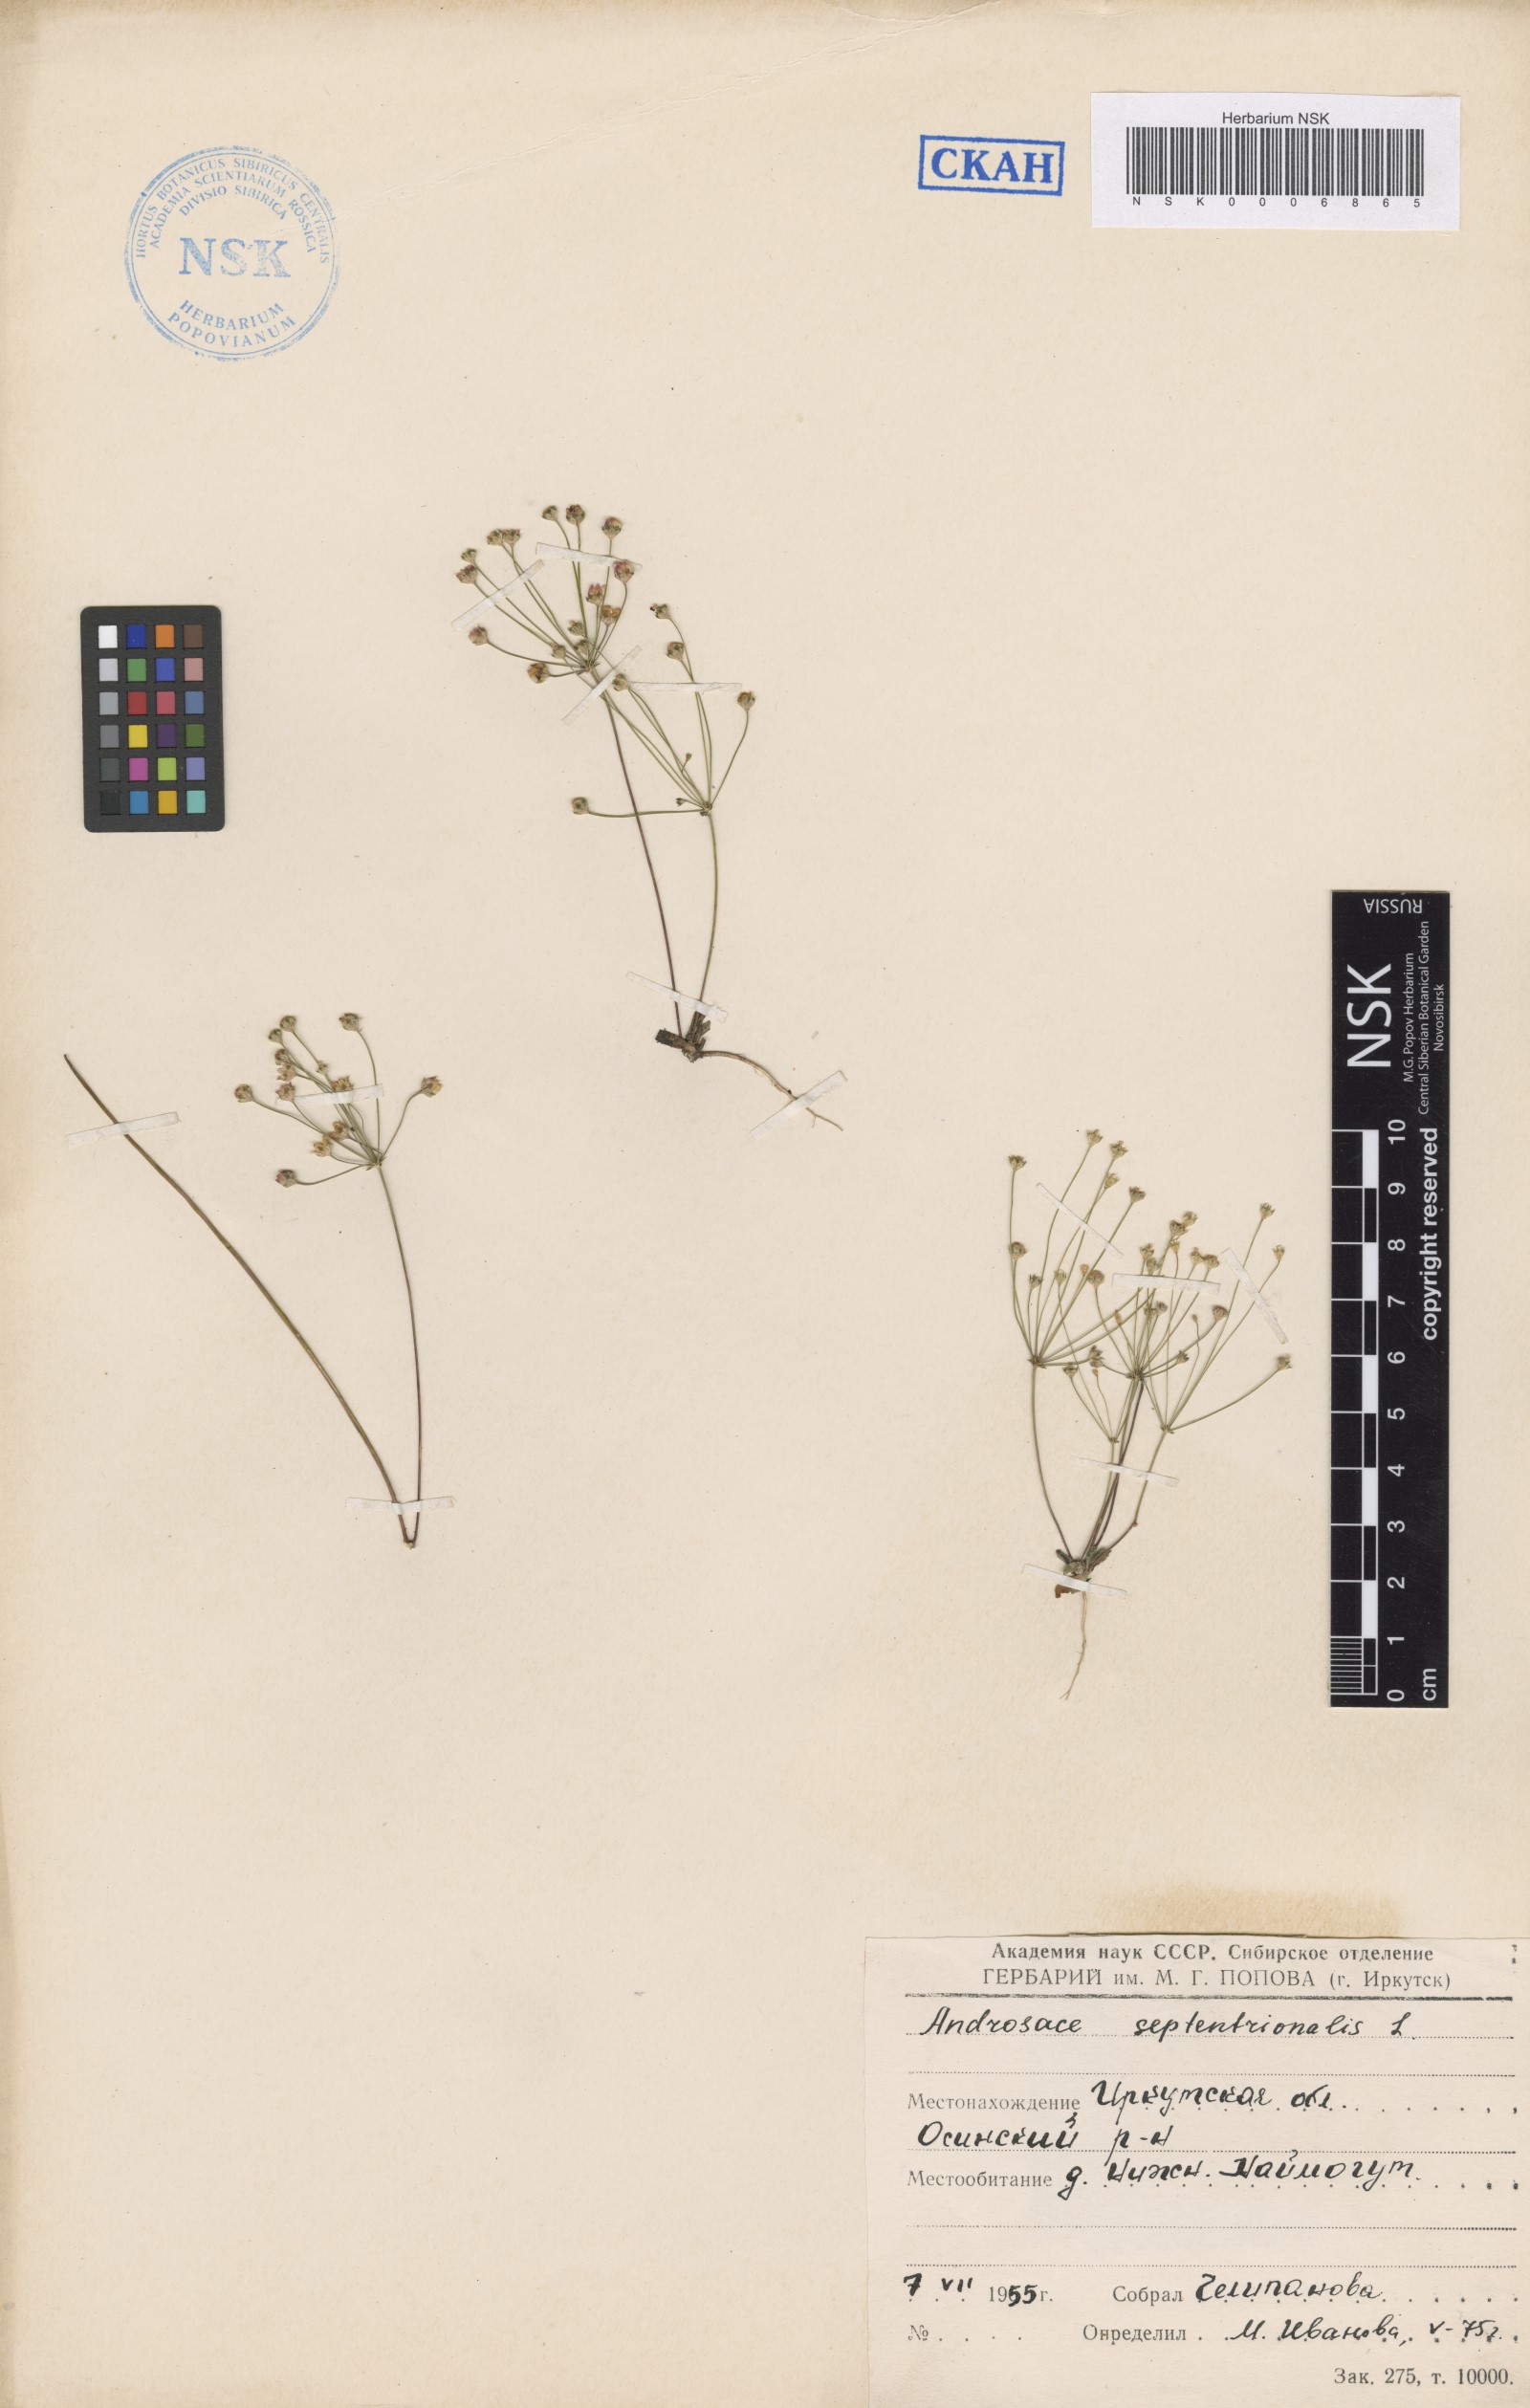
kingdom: Plantae
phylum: Tracheophyta
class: Magnoliopsida
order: Ericales
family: Primulaceae
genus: Androsace
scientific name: Androsace septentrionalis
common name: Hairy northern fairy-candelabra
